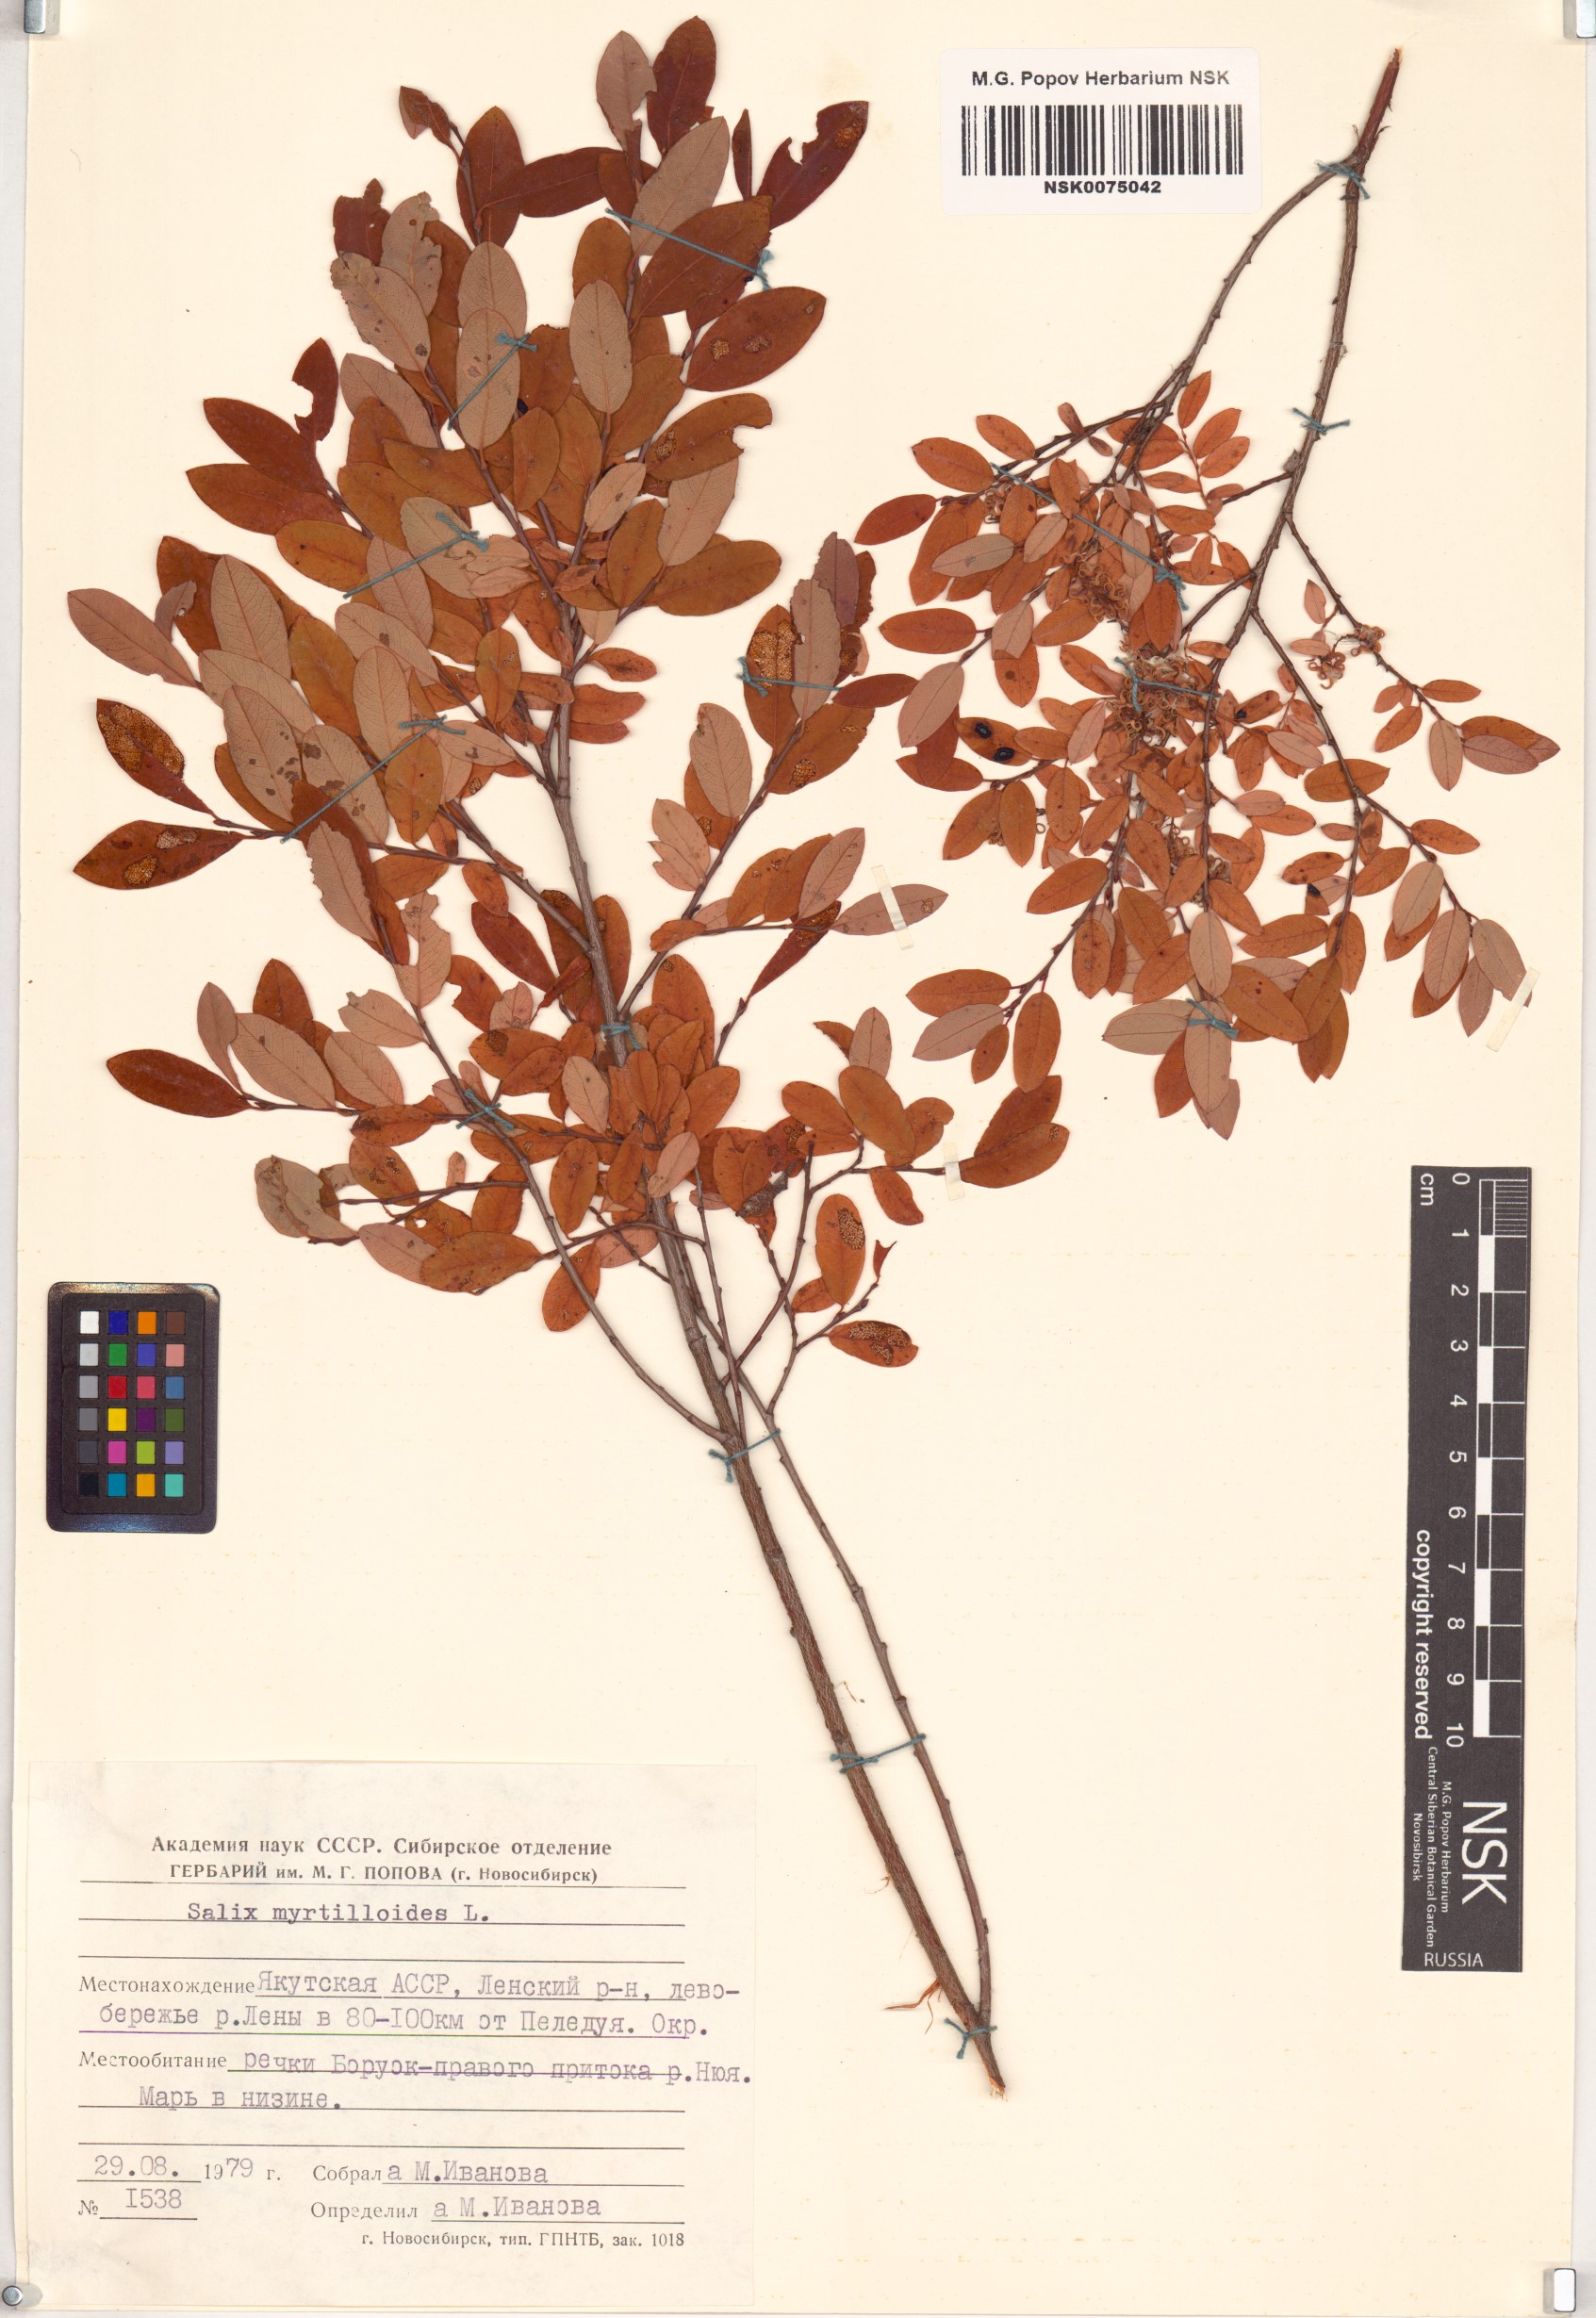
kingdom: Plantae
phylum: Tracheophyta
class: Magnoliopsida
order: Malpighiales
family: Salicaceae
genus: Salix
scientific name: Salix myrtilloides
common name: Myrtle-leaved willow
